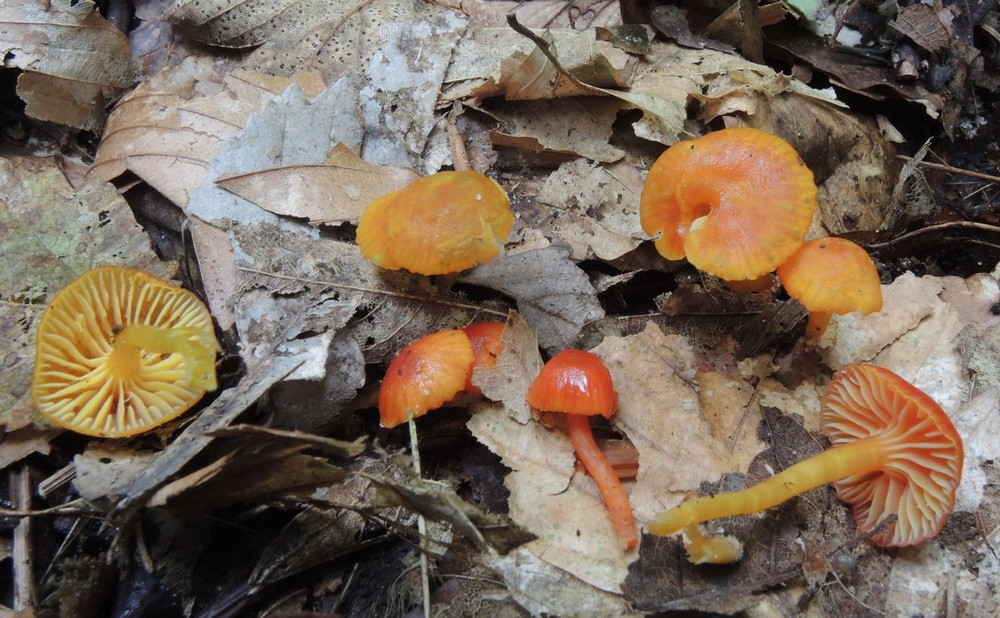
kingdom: Fungi
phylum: Basidiomycota
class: Agaricomycetes
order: Agaricales
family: Hygrophoraceae
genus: Hygrocybe
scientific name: Hygrocybe insipida
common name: liden vokshat
